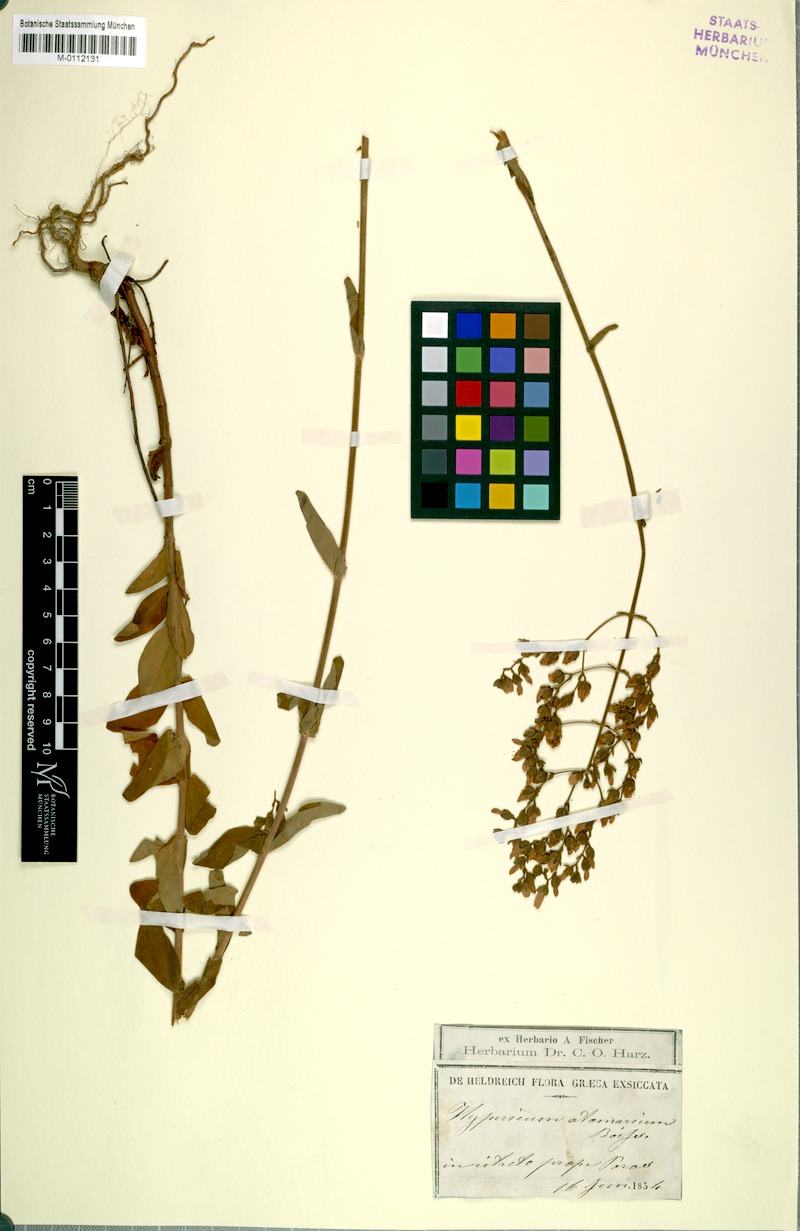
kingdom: Plantae
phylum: Tracheophyta
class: Magnoliopsida
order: Malpighiales
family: Hypericaceae
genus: Hypericum
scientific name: Hypericum atomarium
